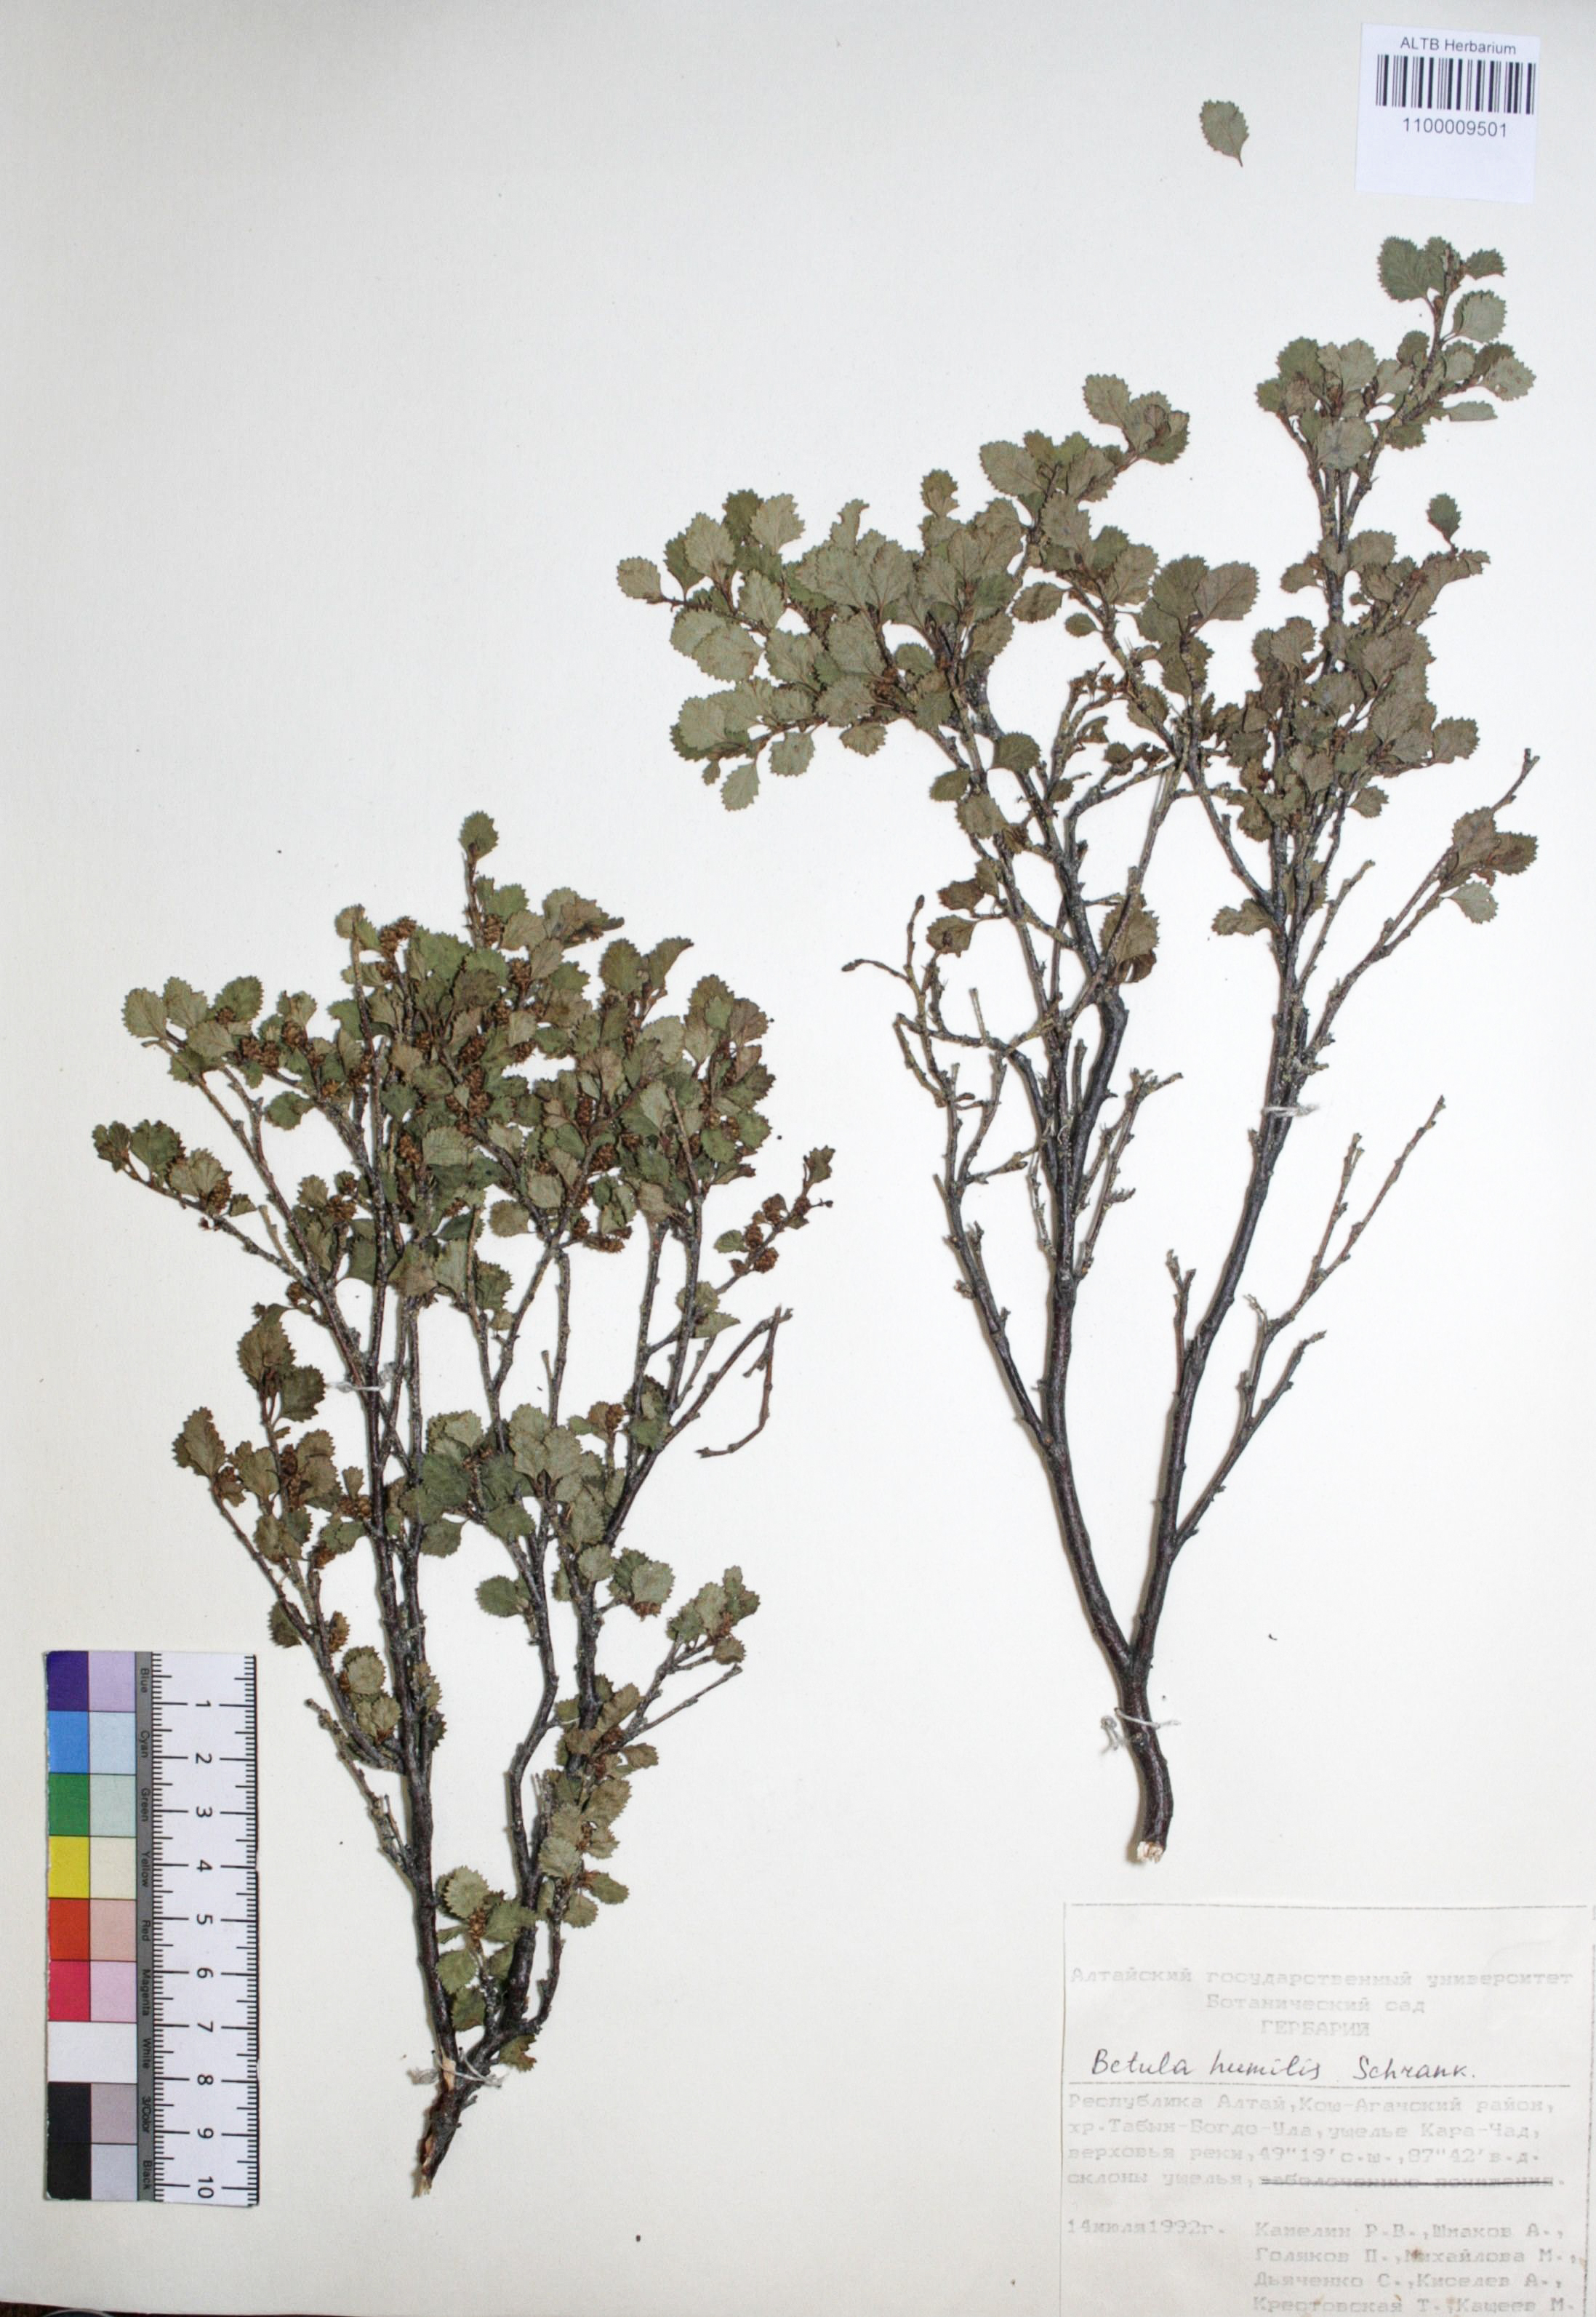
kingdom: Plantae
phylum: Tracheophyta
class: Magnoliopsida
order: Fagales
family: Betulaceae
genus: Betula
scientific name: Betula humilis
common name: Shrubby birch
